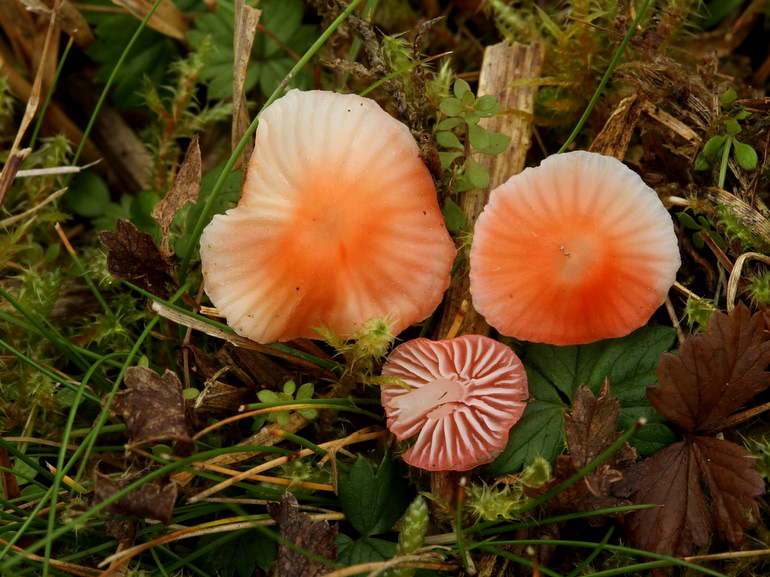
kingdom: Fungi
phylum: Basidiomycota
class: Agaricomycetes
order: Agaricales
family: Mycenaceae
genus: Atheniella
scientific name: Atheniella adonis
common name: rønnerød huesvamp
